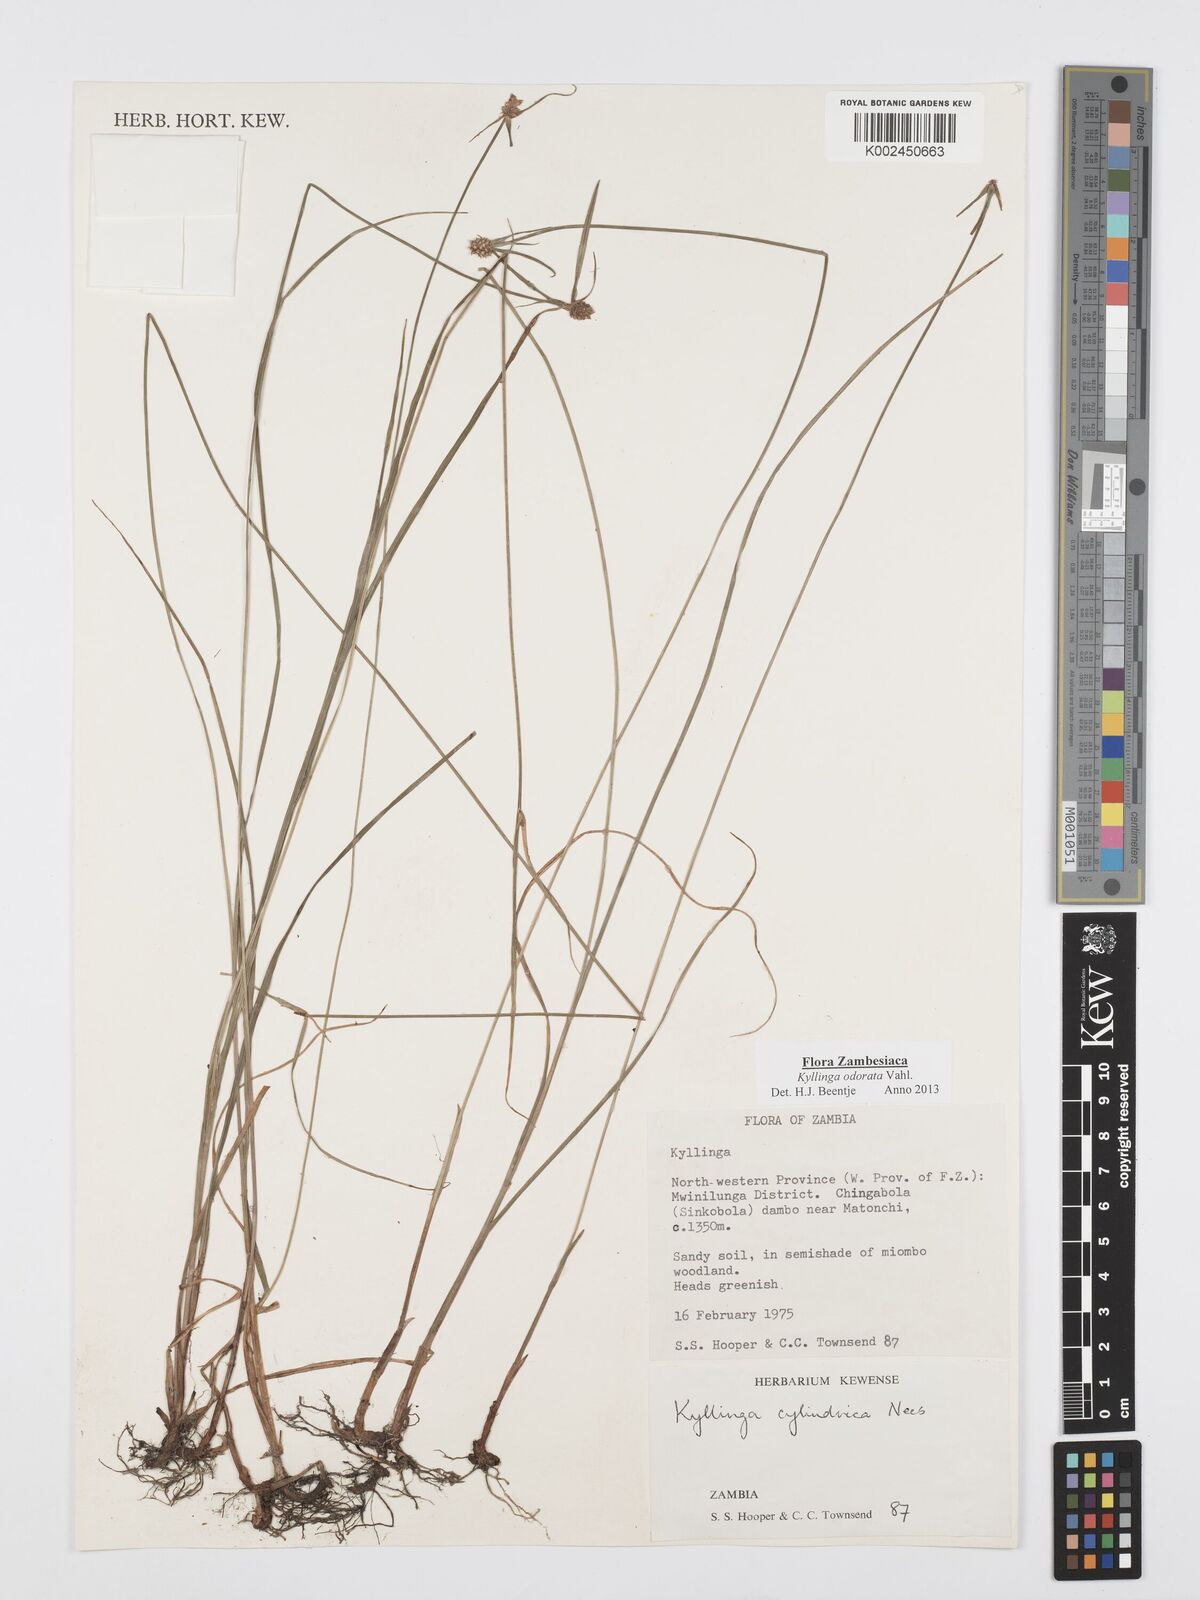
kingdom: Plantae
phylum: Tracheophyta
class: Liliopsida
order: Poales
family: Cyperaceae
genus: Cyperus
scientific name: Cyperus
